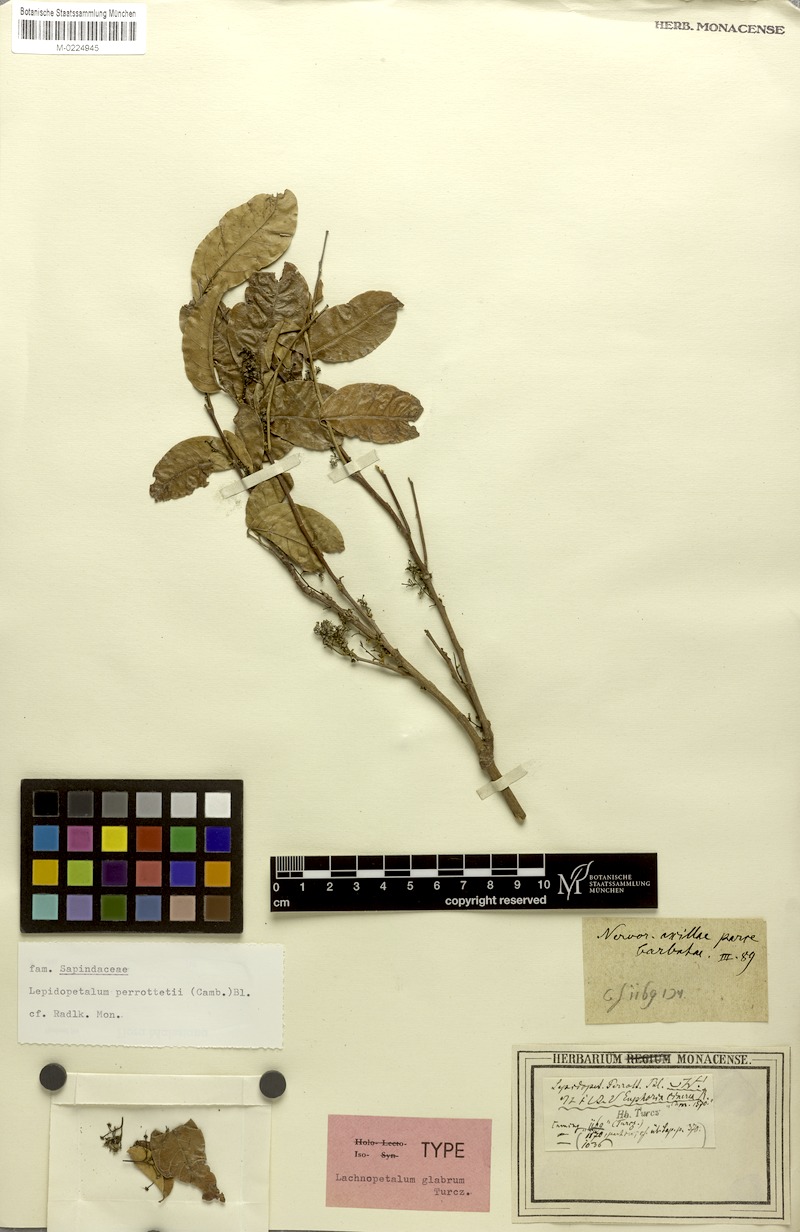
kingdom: Plantae
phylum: Tracheophyta
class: Magnoliopsida
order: Sapindales
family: Sapindaceae
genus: Dimocarpus
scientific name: Dimocarpus cinereus
